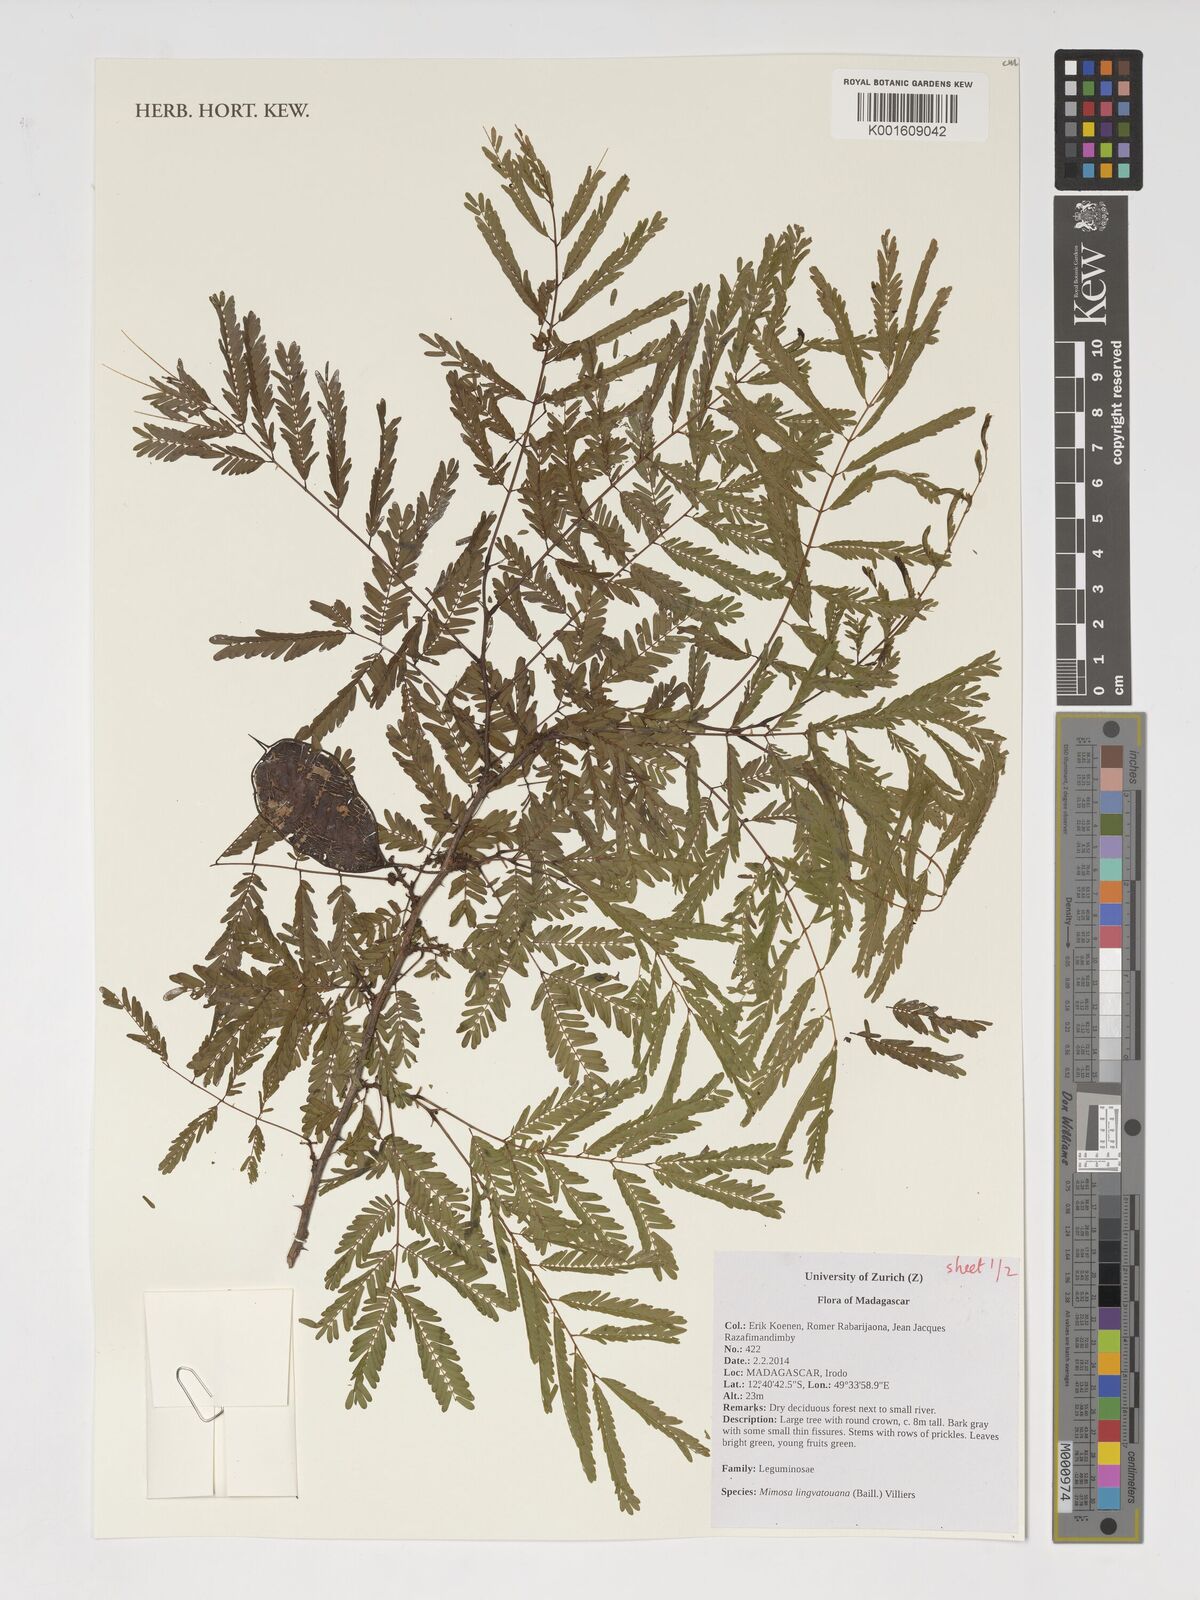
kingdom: Plantae
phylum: Tracheophyta
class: Magnoliopsida
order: Fabales
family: Fabaceae
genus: Mimosa
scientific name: Mimosa lingvatouana
